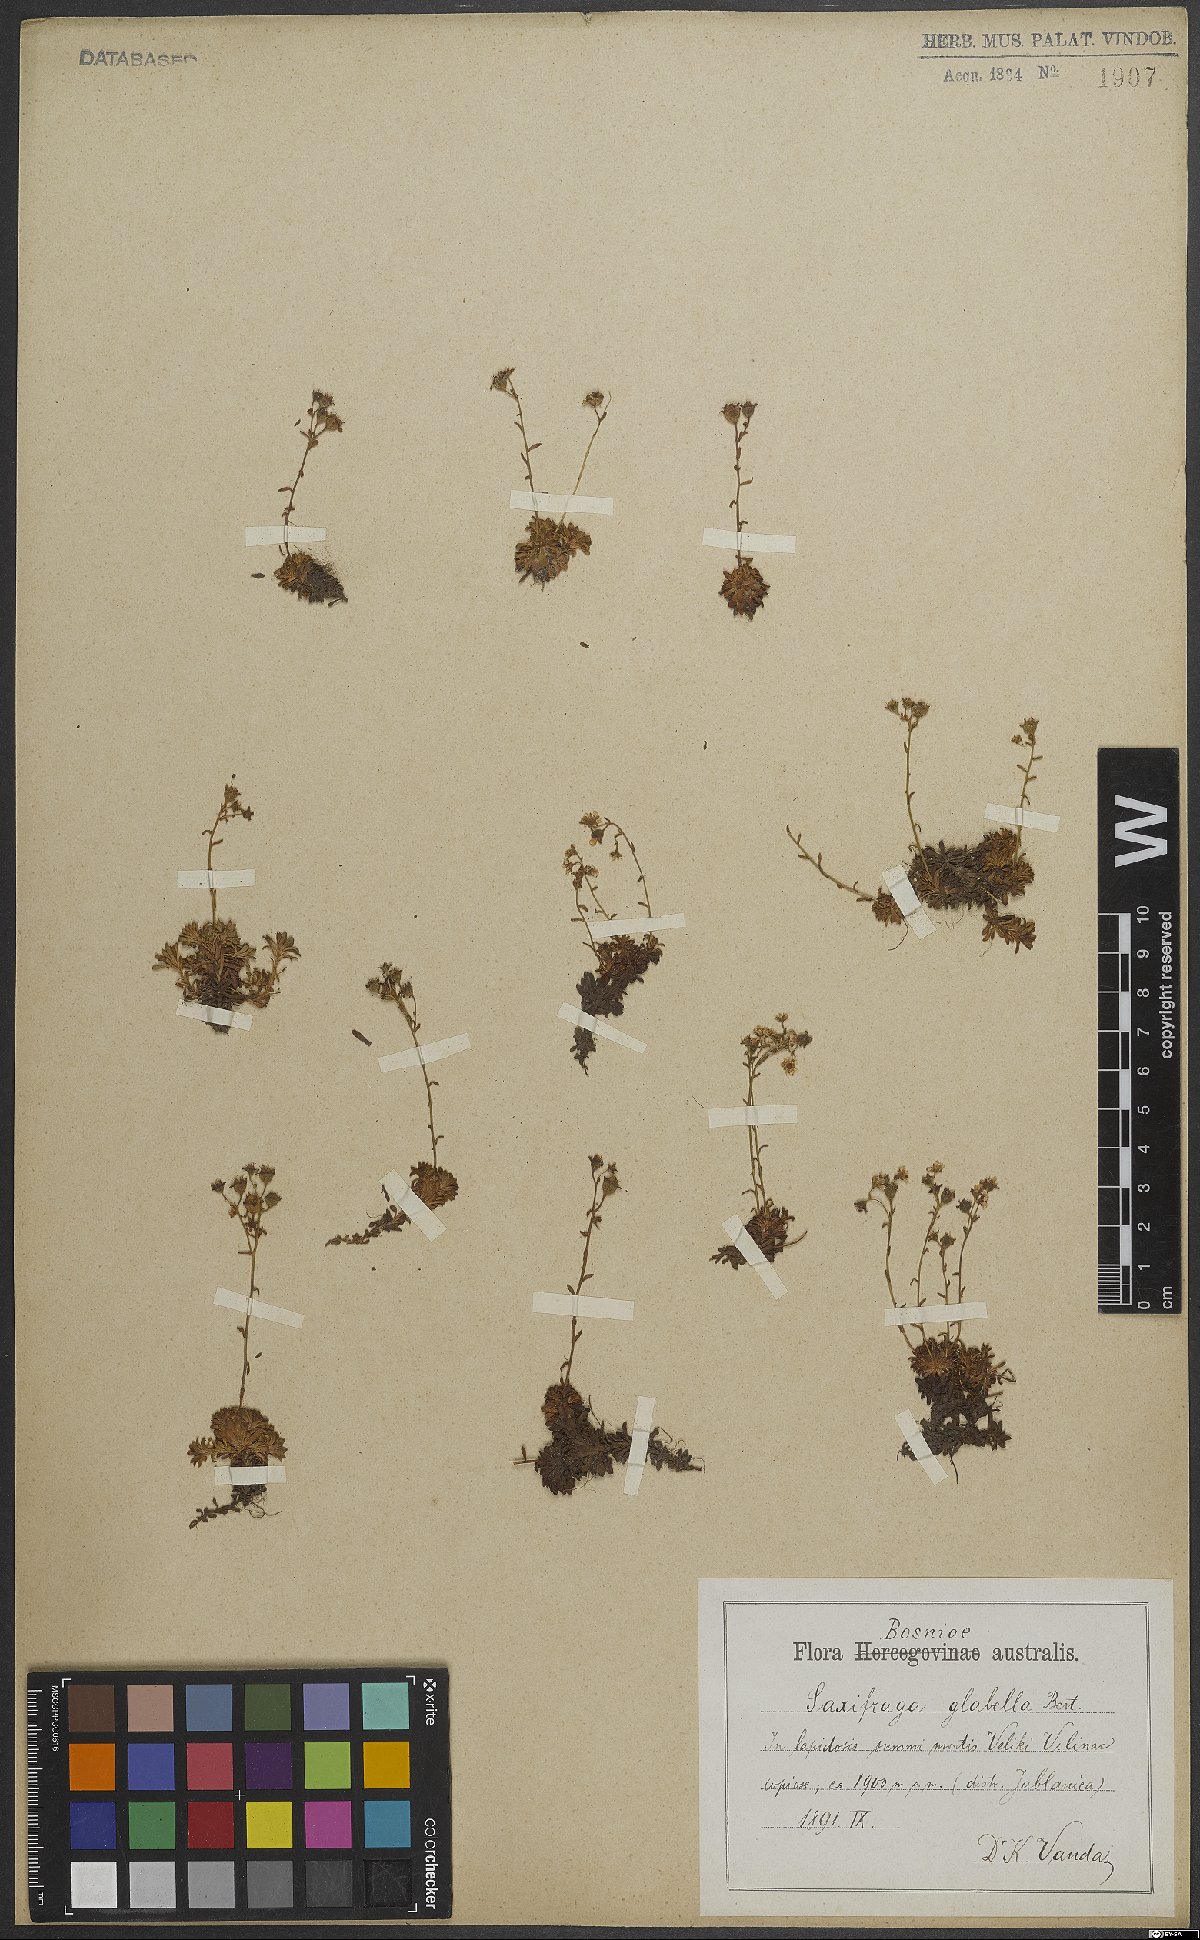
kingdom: Plantae
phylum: Tracheophyta
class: Magnoliopsida
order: Saxifragales
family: Saxifragaceae
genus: Saxifraga
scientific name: Saxifraga glabella
